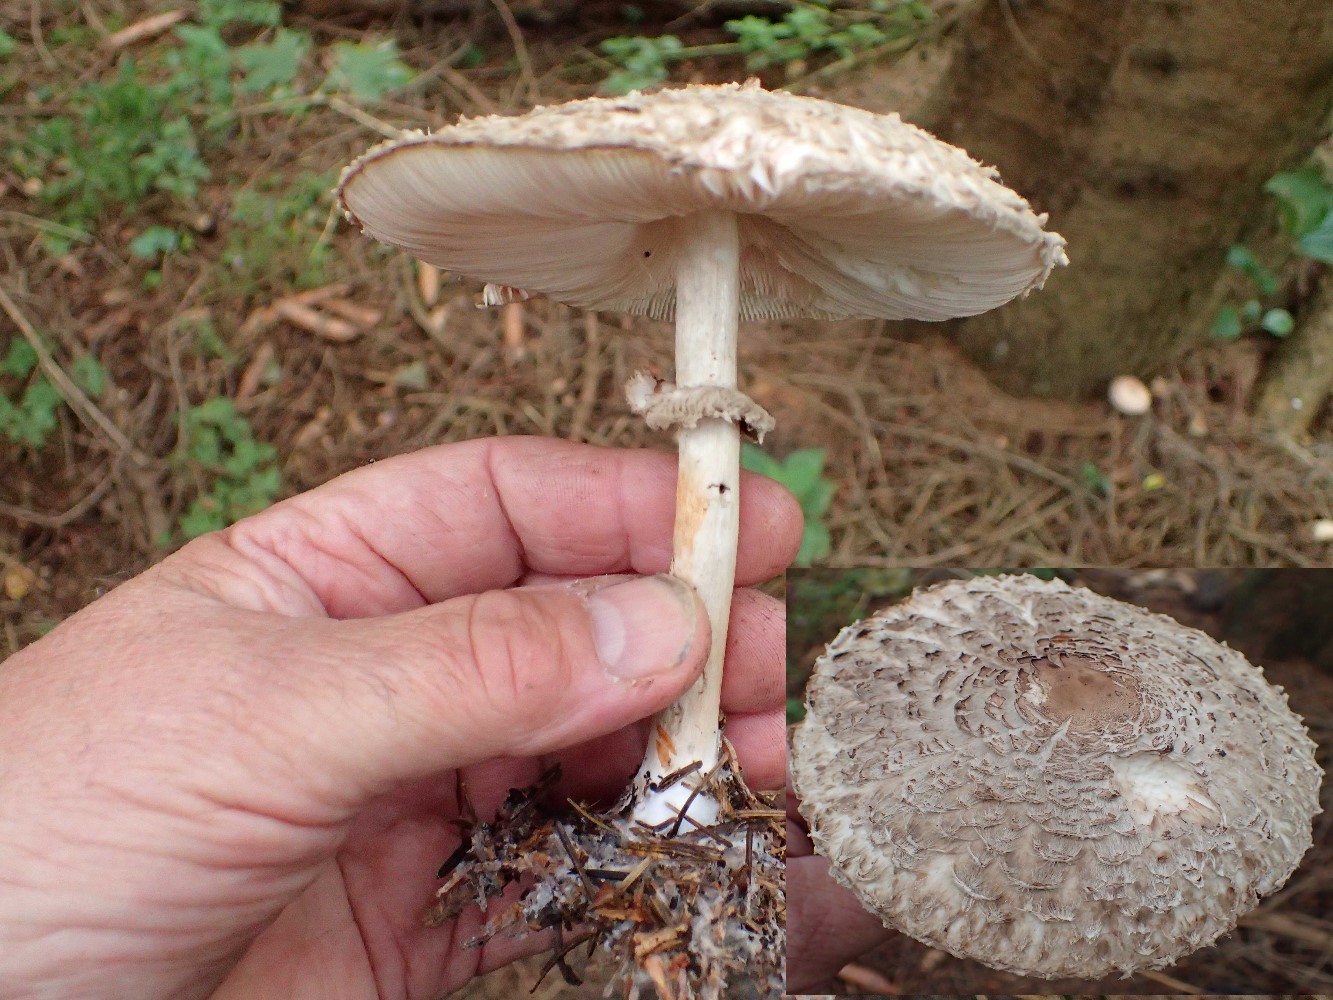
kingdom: Fungi
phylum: Basidiomycota
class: Agaricomycetes
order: Agaricales
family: Agaricaceae
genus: Chlorophyllum
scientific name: Chlorophyllum olivieri
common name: almindelig rabarberhat
